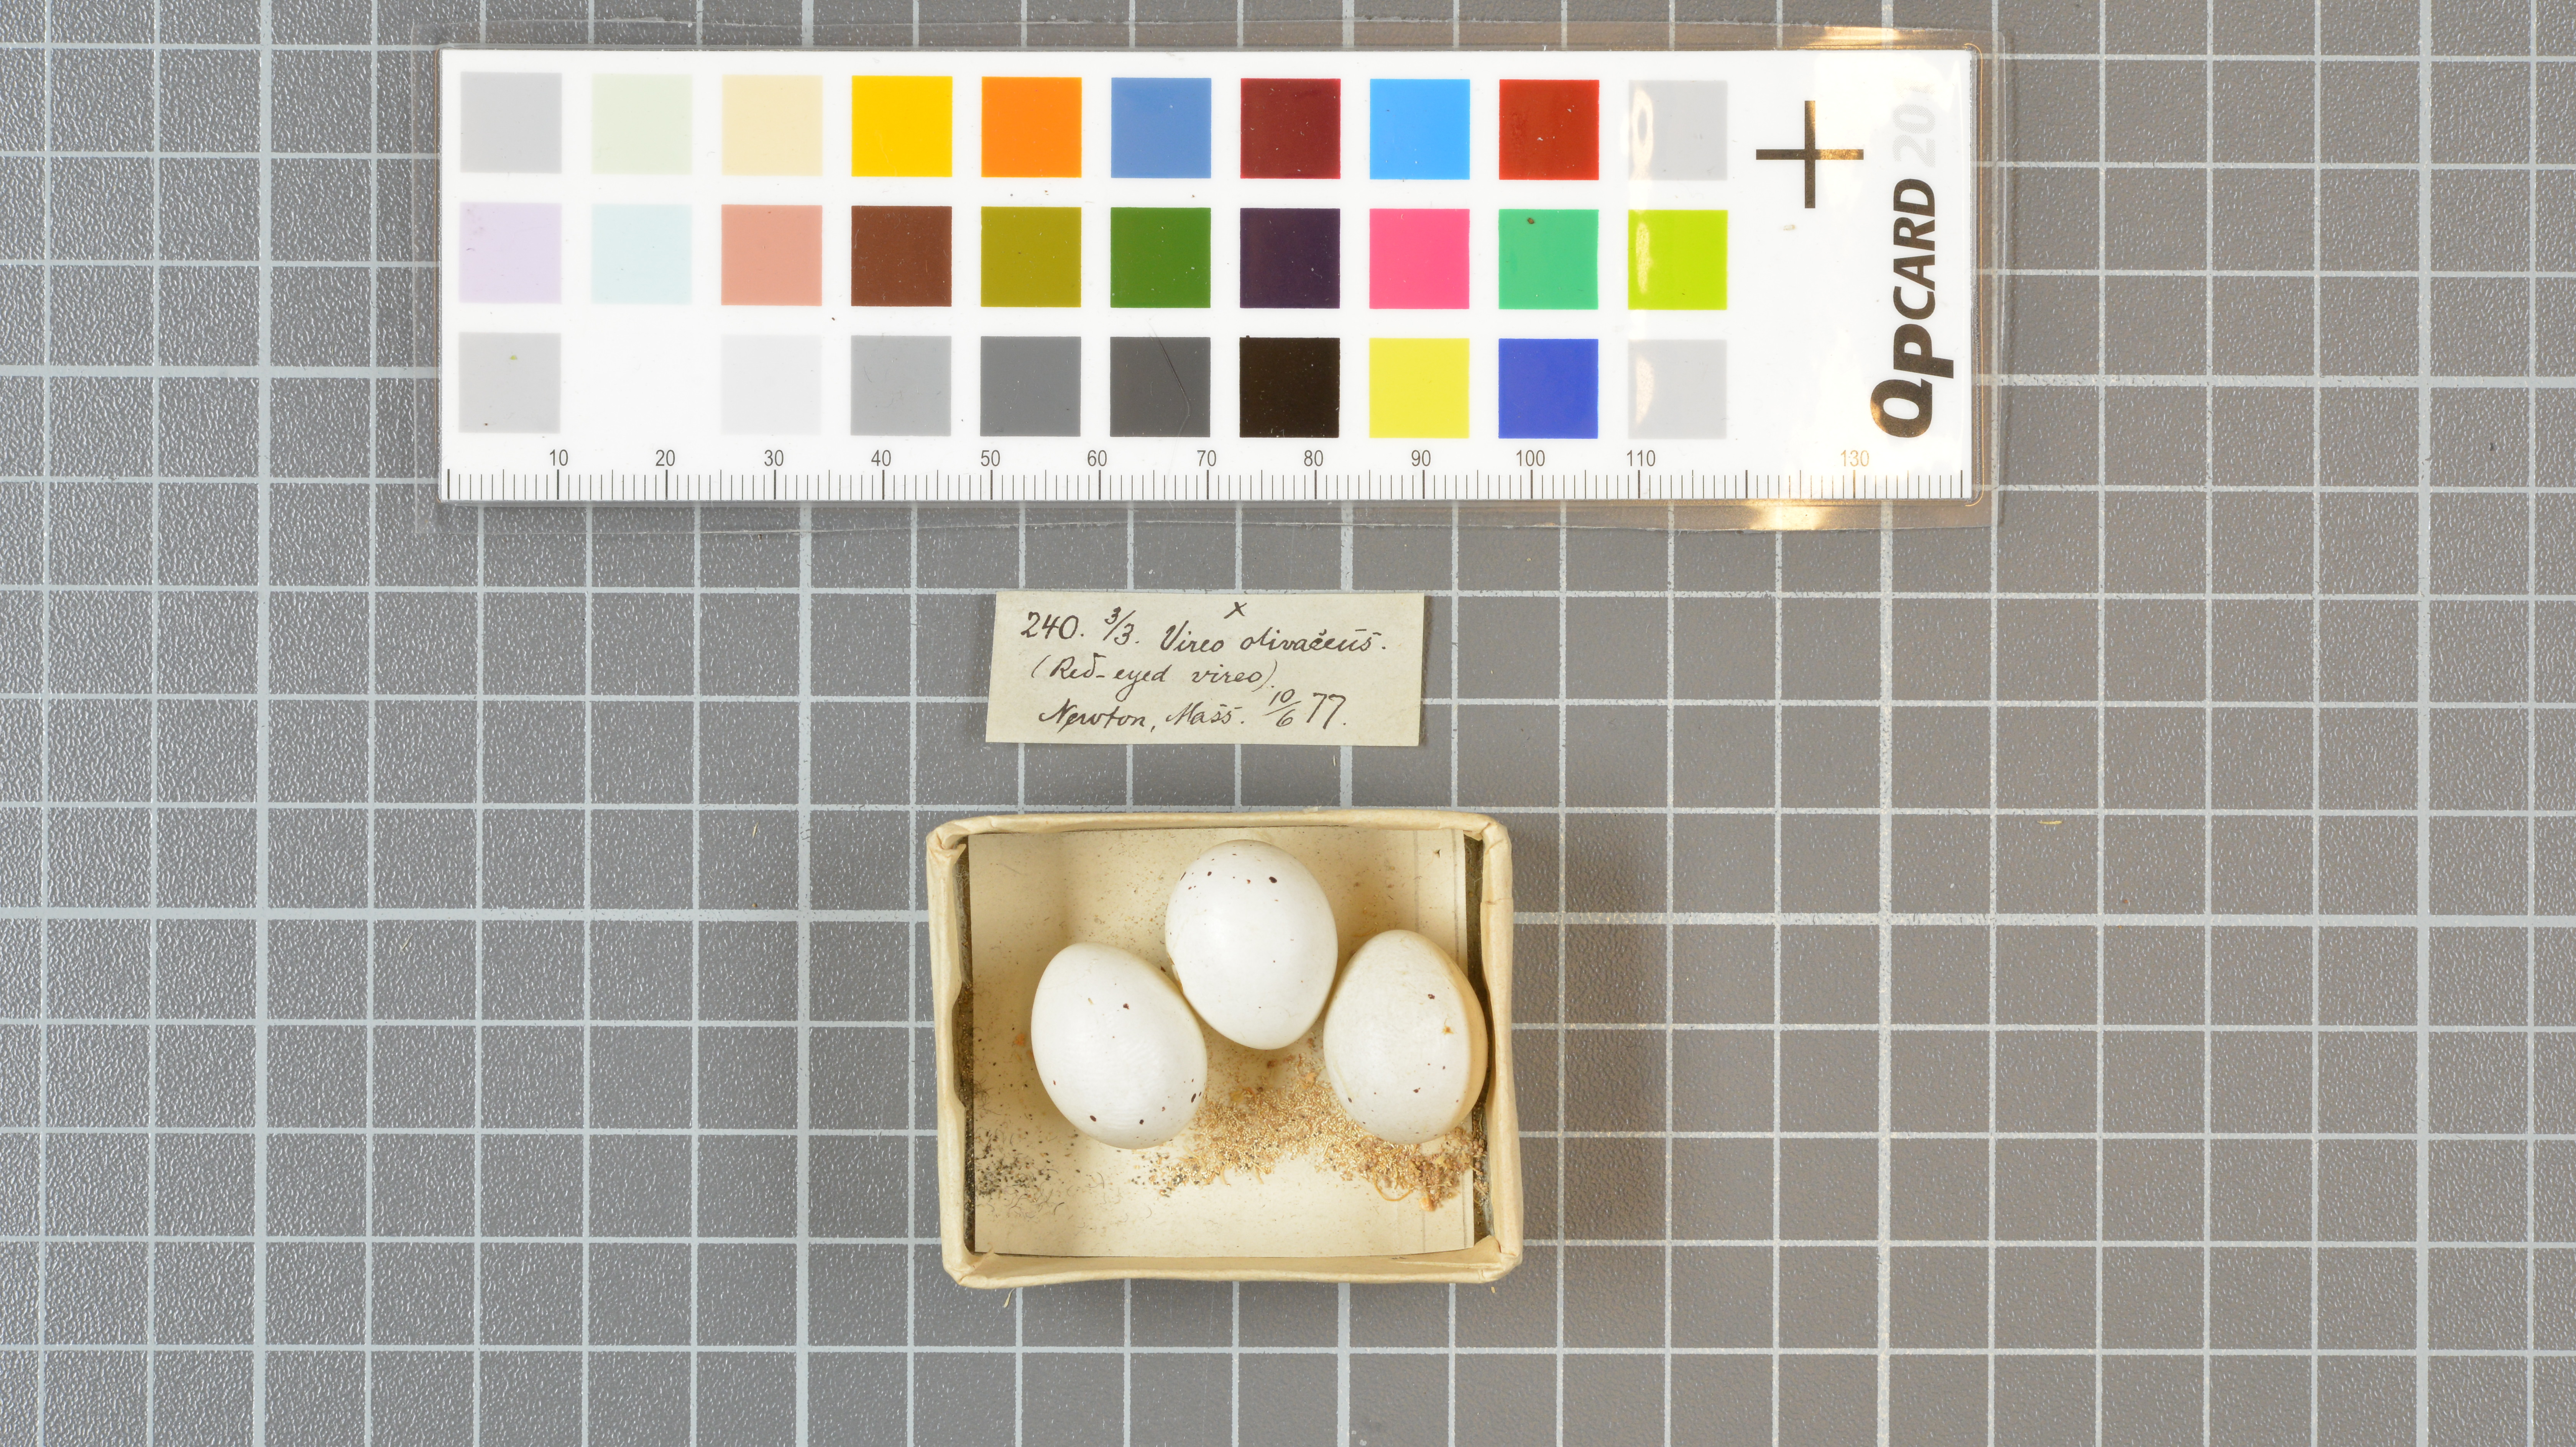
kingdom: Animalia
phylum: Chordata
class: Aves
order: Passeriformes
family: Vireonidae
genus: Vireo
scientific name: Vireo olivaceus
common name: Red-eyed vireo
